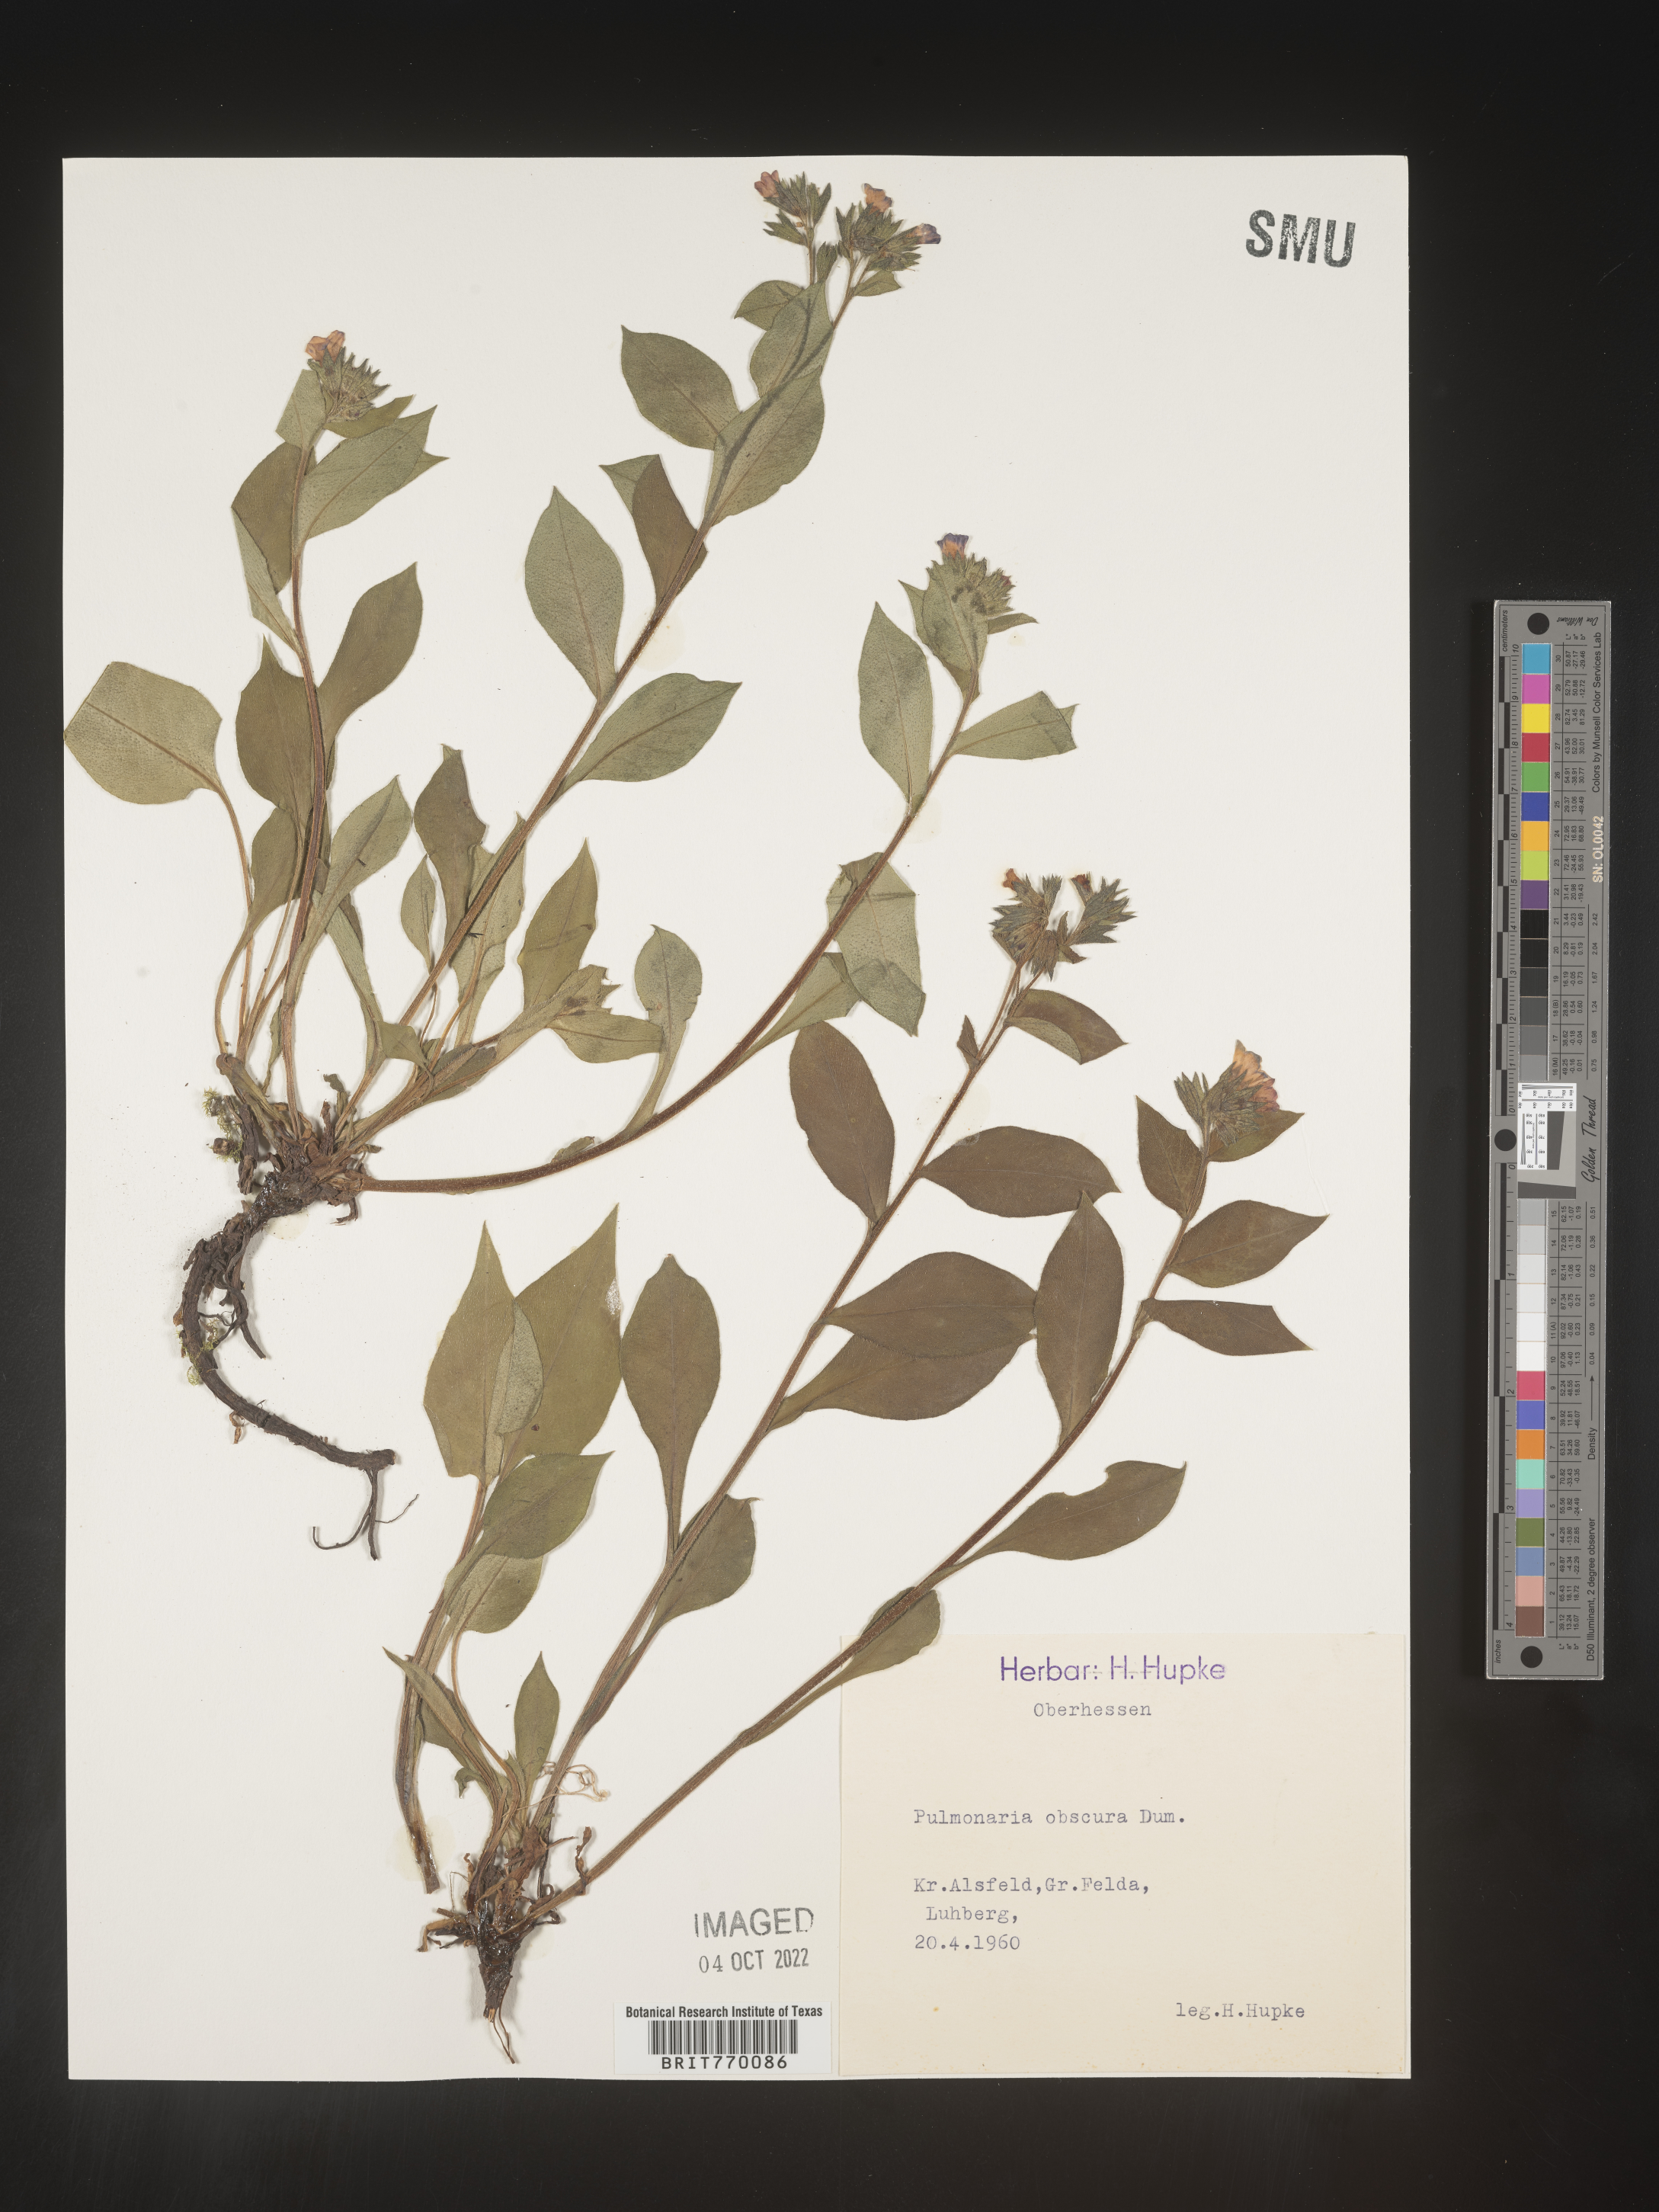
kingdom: Plantae
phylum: Tracheophyta
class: Magnoliopsida
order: Boraginales
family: Boraginaceae
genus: Pulmonaria
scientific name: Pulmonaria
